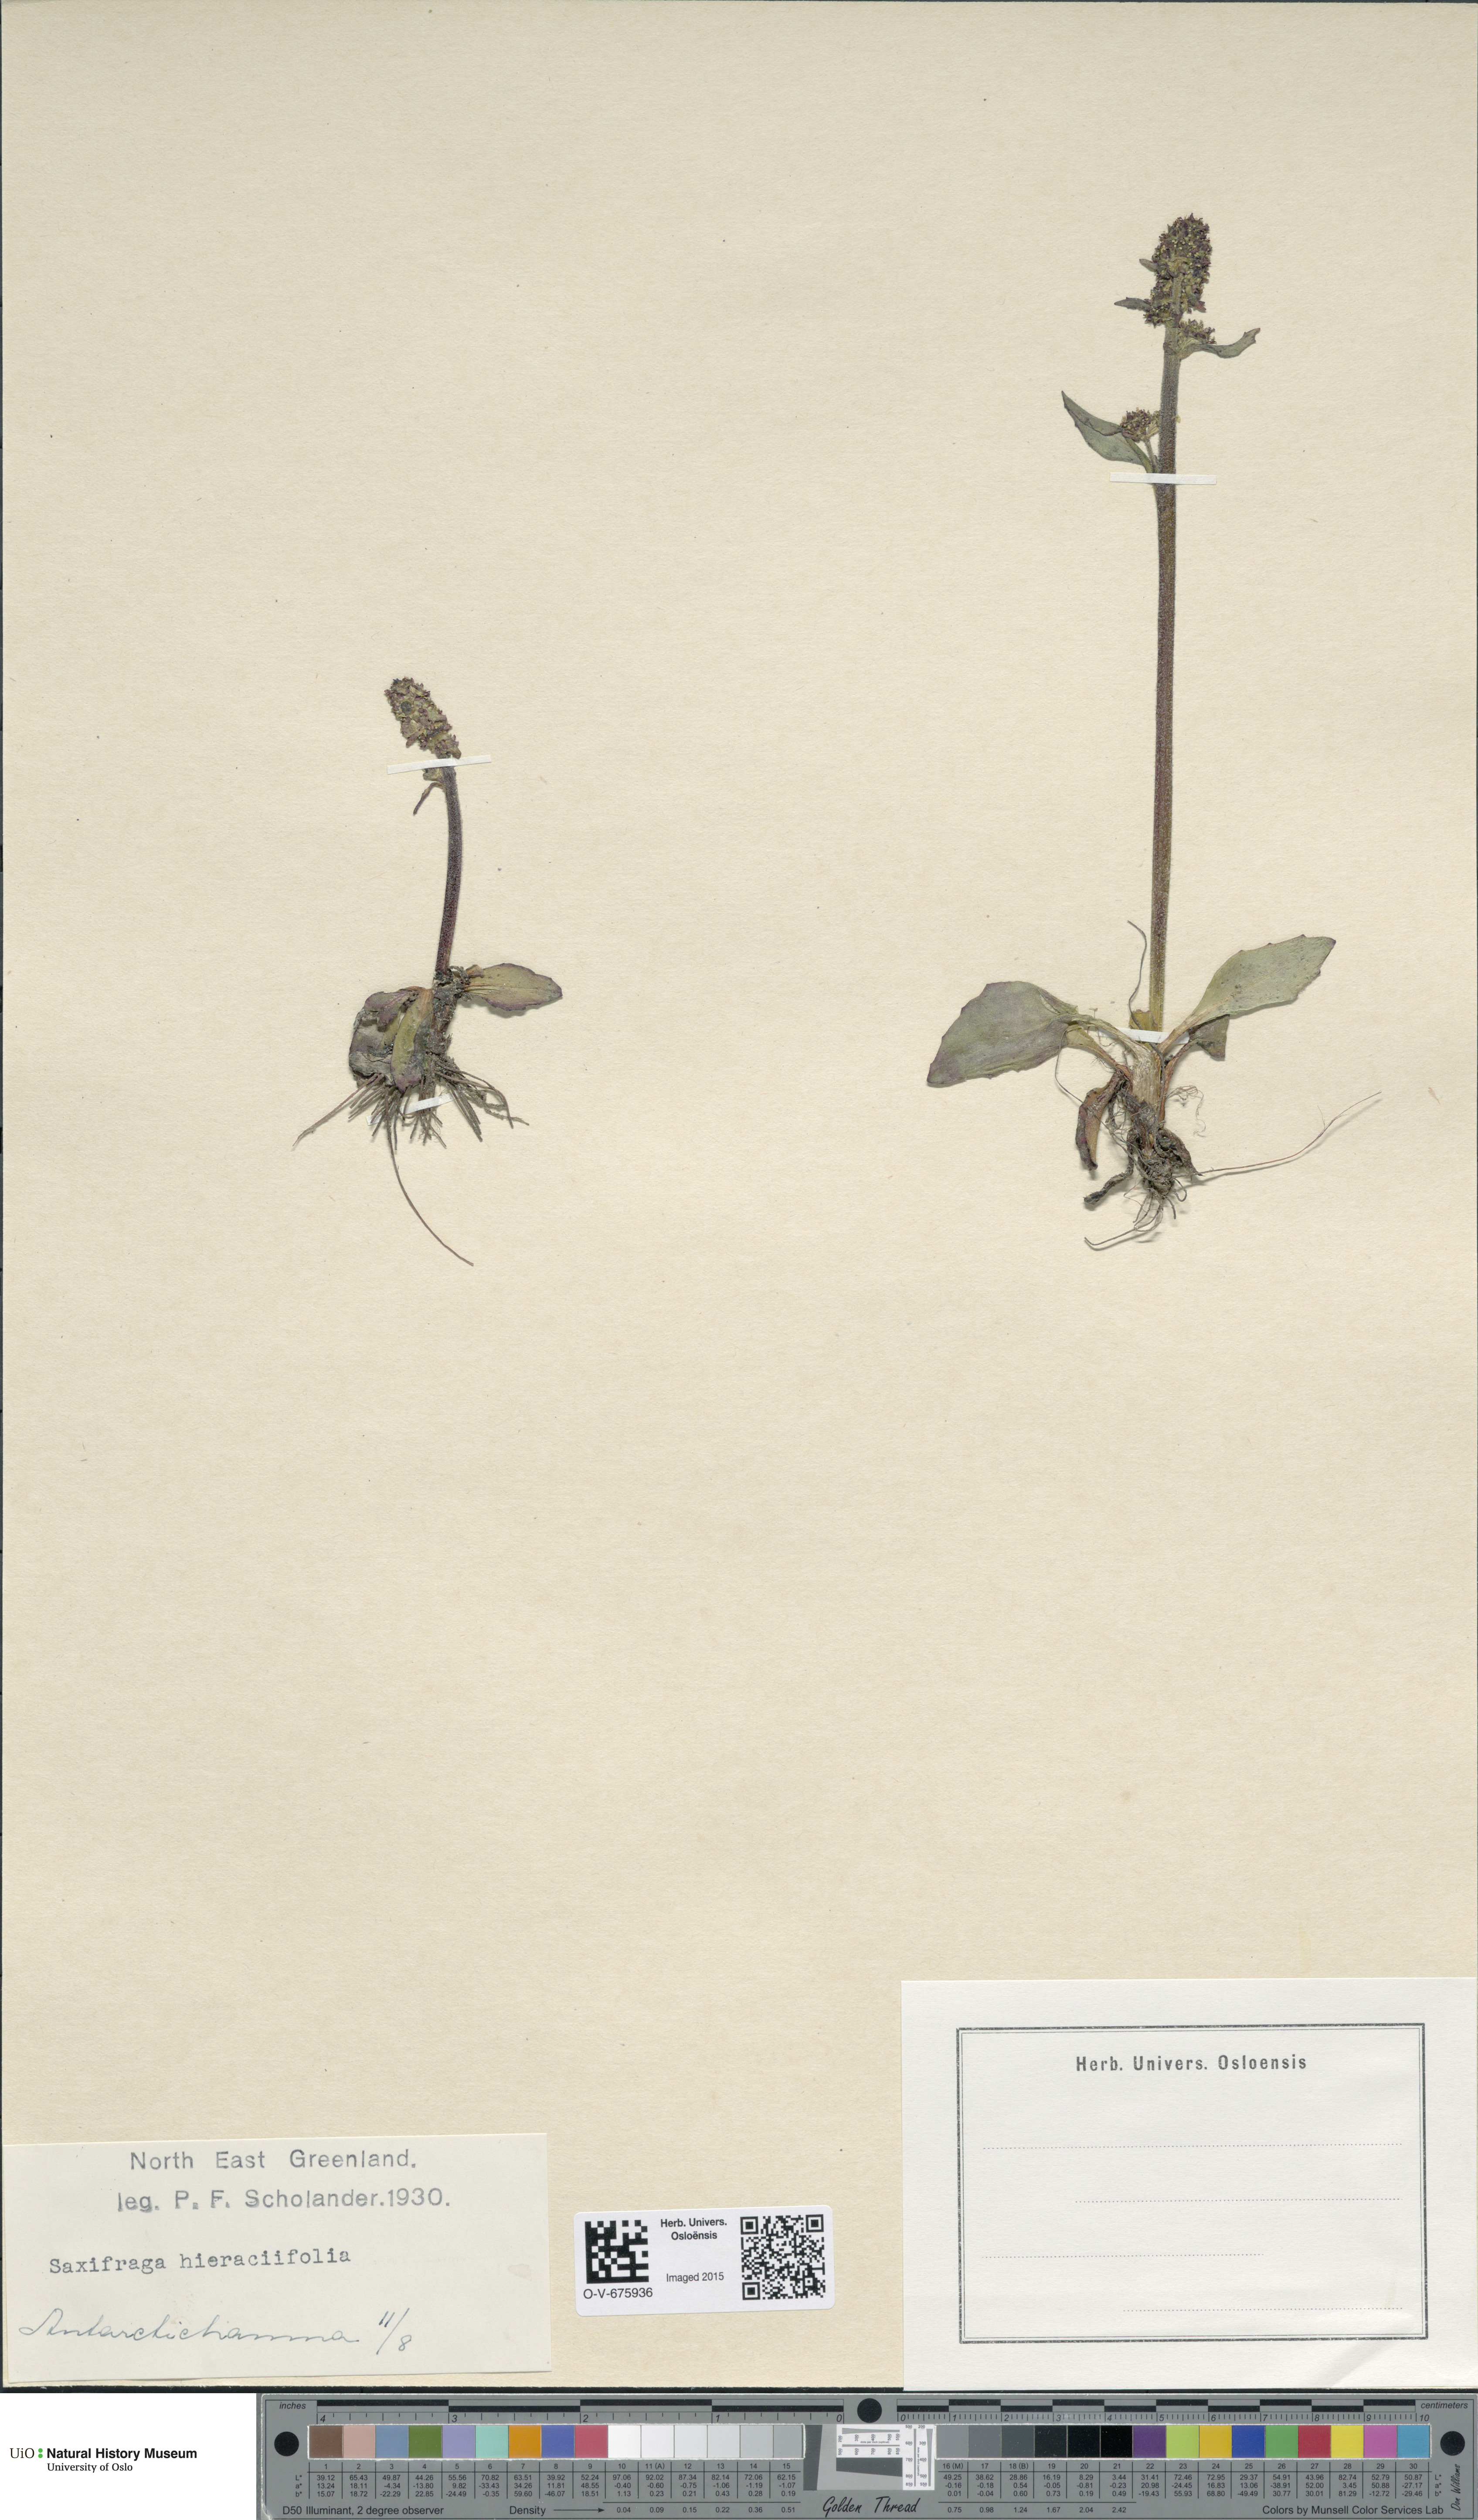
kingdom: Plantae
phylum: Tracheophyta
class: Magnoliopsida
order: Saxifragales
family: Saxifragaceae
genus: Micranthes
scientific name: Micranthes hieraciifolia
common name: Hawkweed-leaved saxifrage
